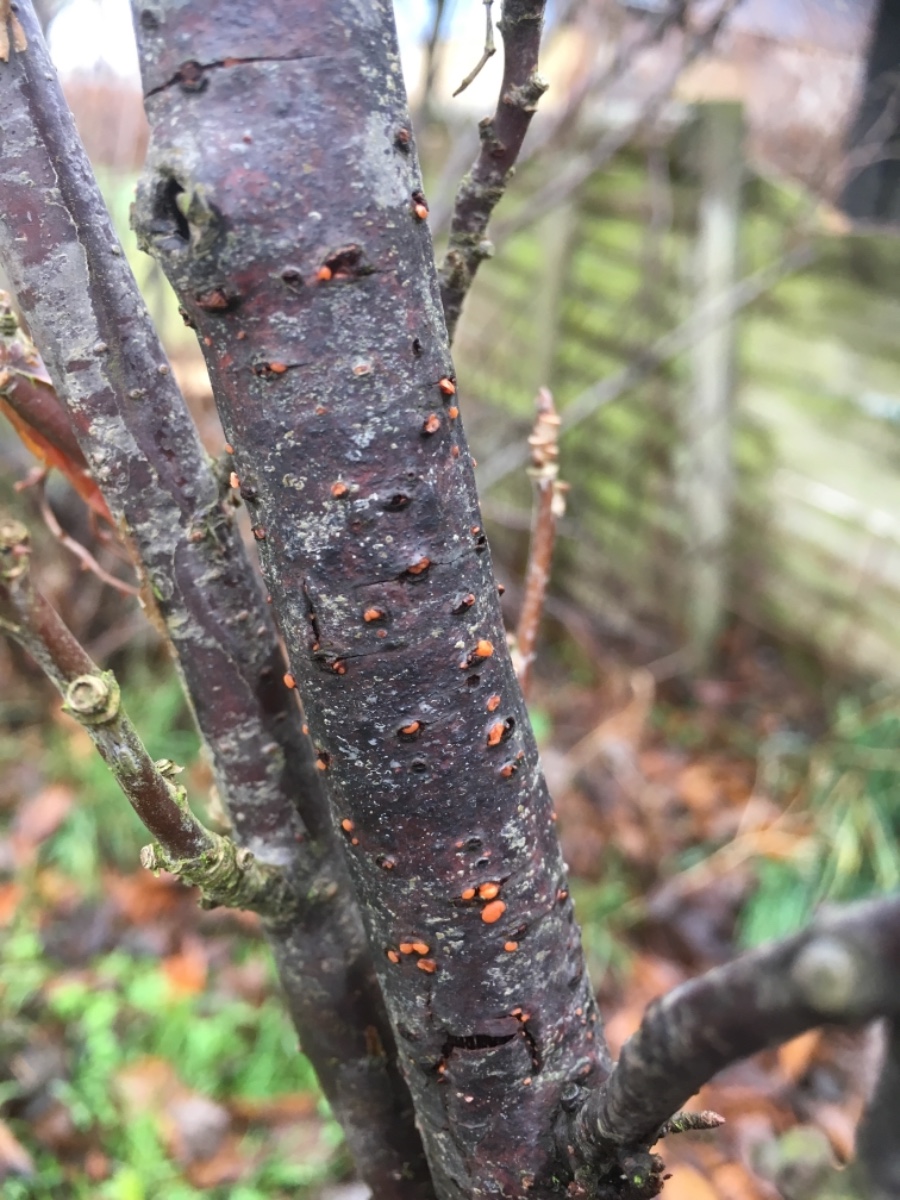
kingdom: Fungi
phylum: Ascomycota
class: Sordariomycetes
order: Hypocreales
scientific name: Hypocreales
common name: kødkerneordenen
